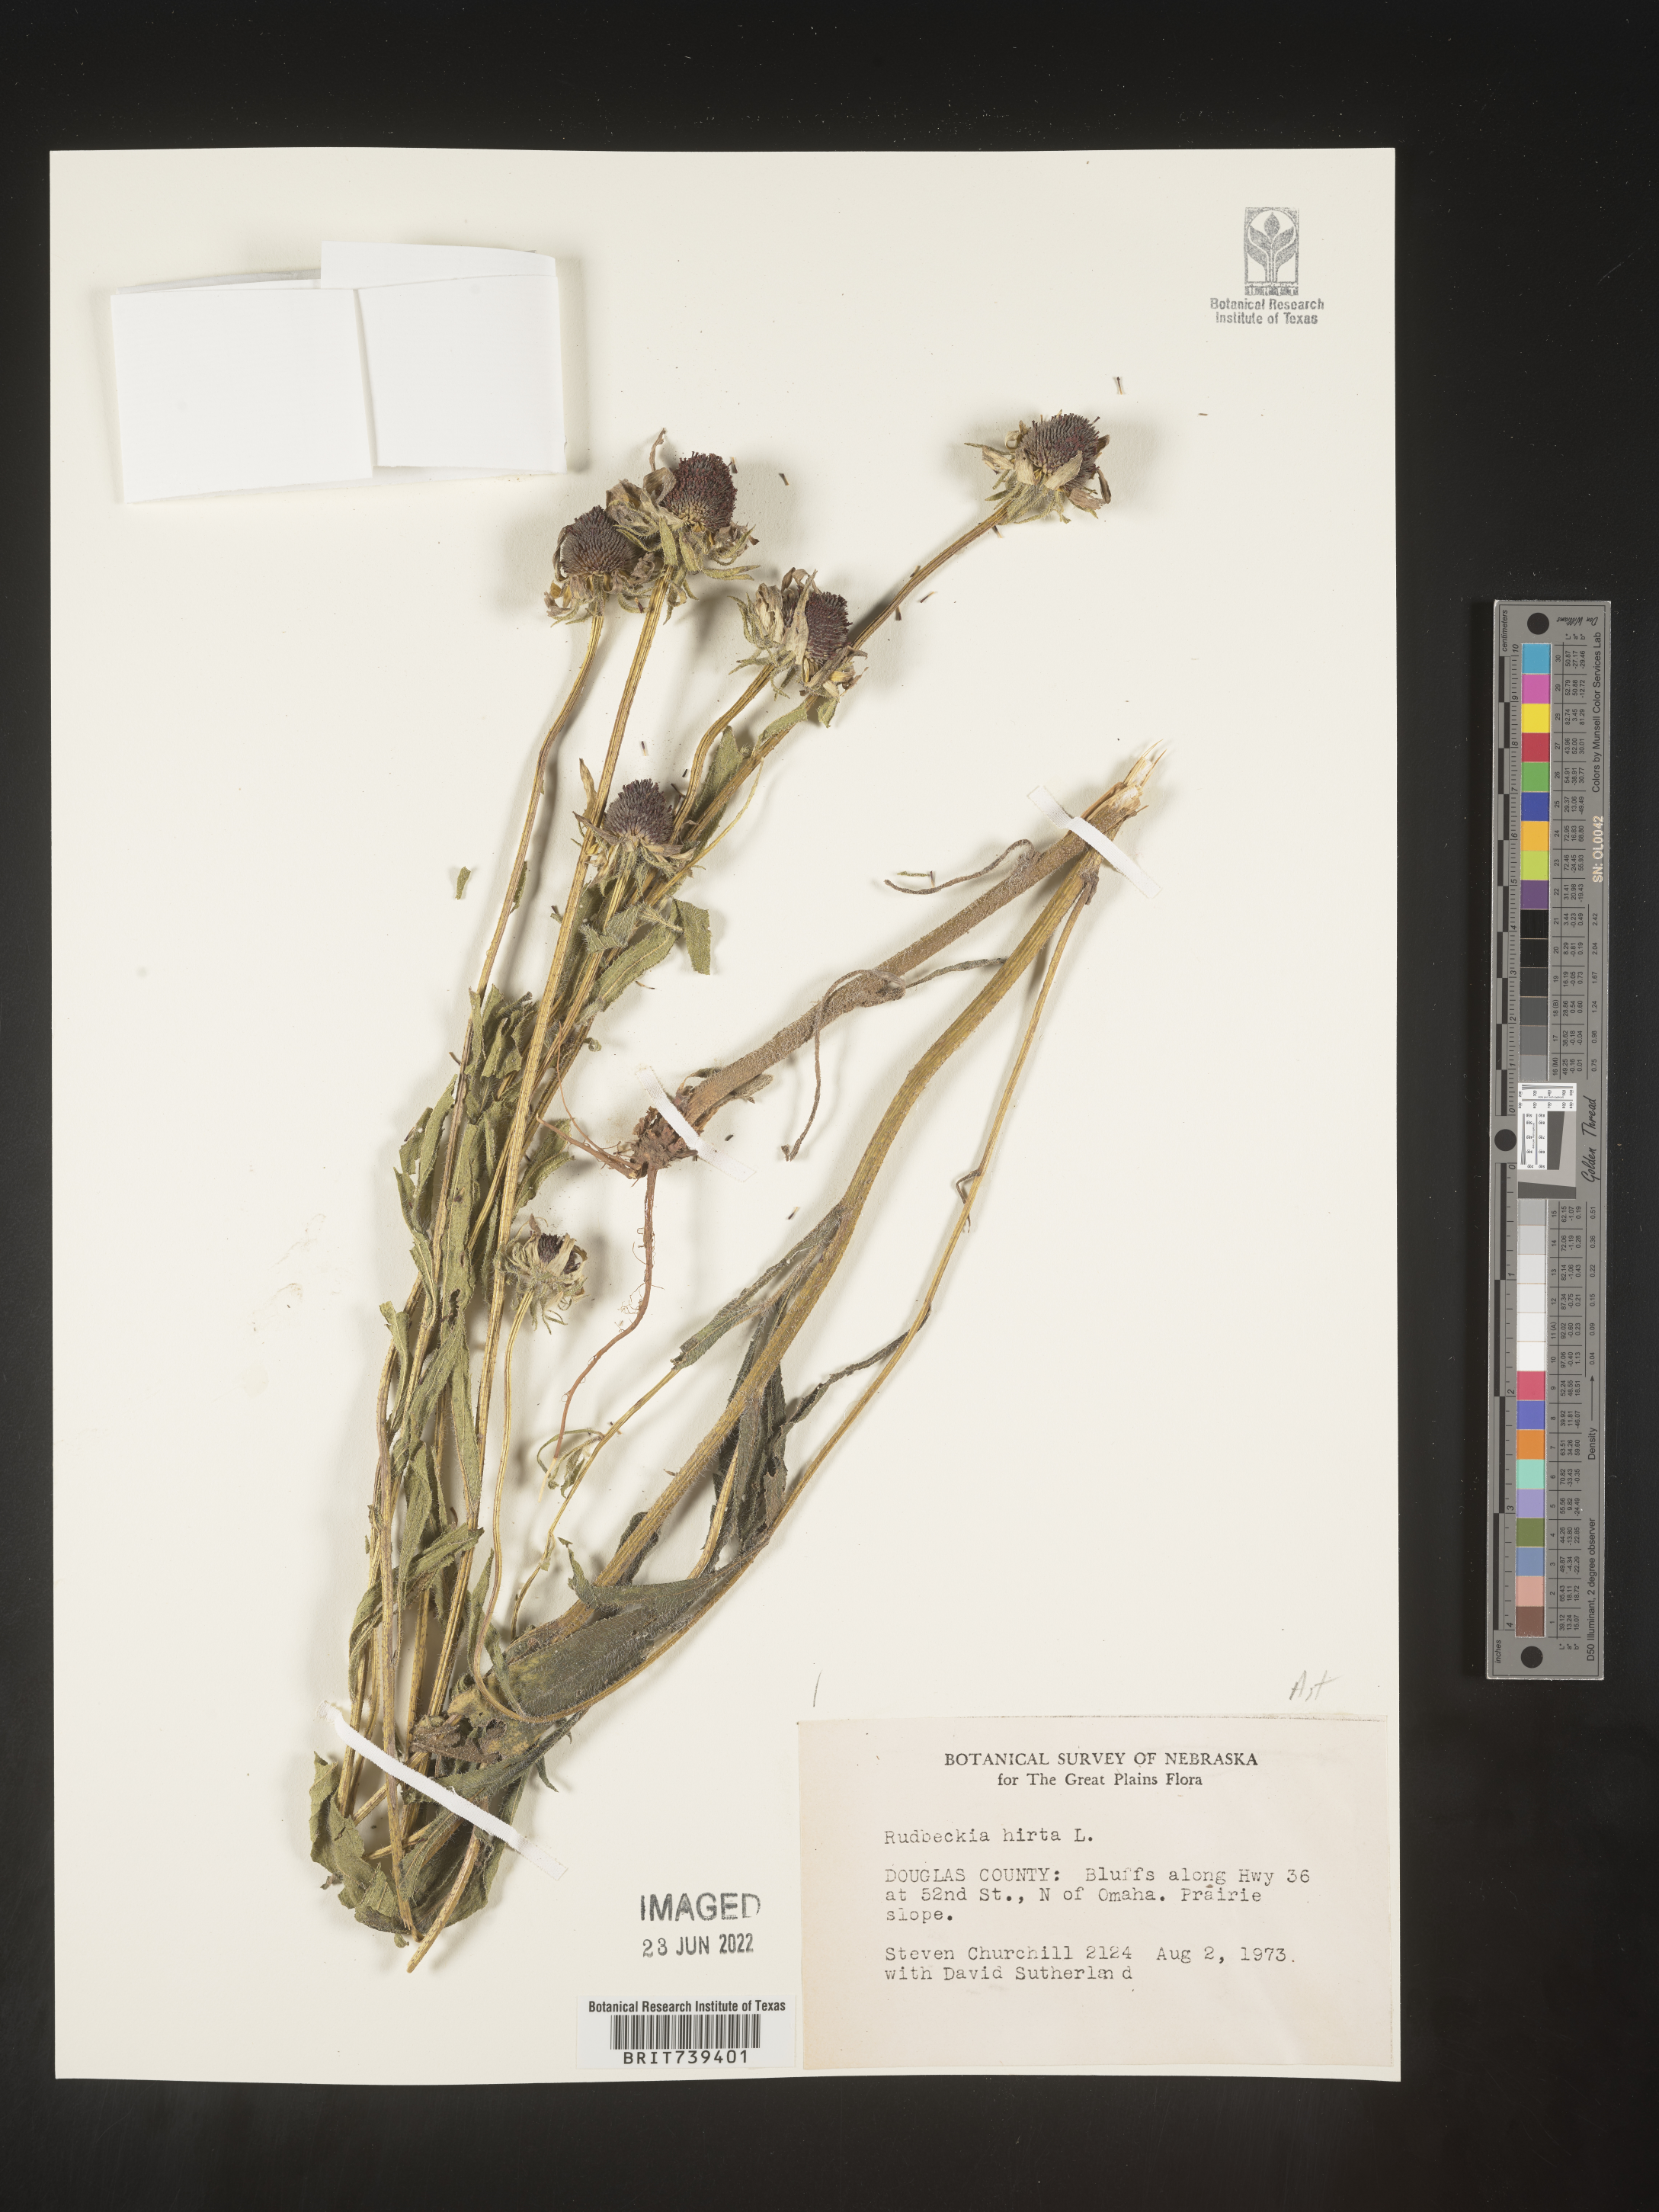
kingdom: Plantae
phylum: Tracheophyta
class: Magnoliopsida
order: Asterales
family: Asteraceae
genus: Rudbeckia
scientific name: Rudbeckia hirta
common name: Black-eyed-susan
